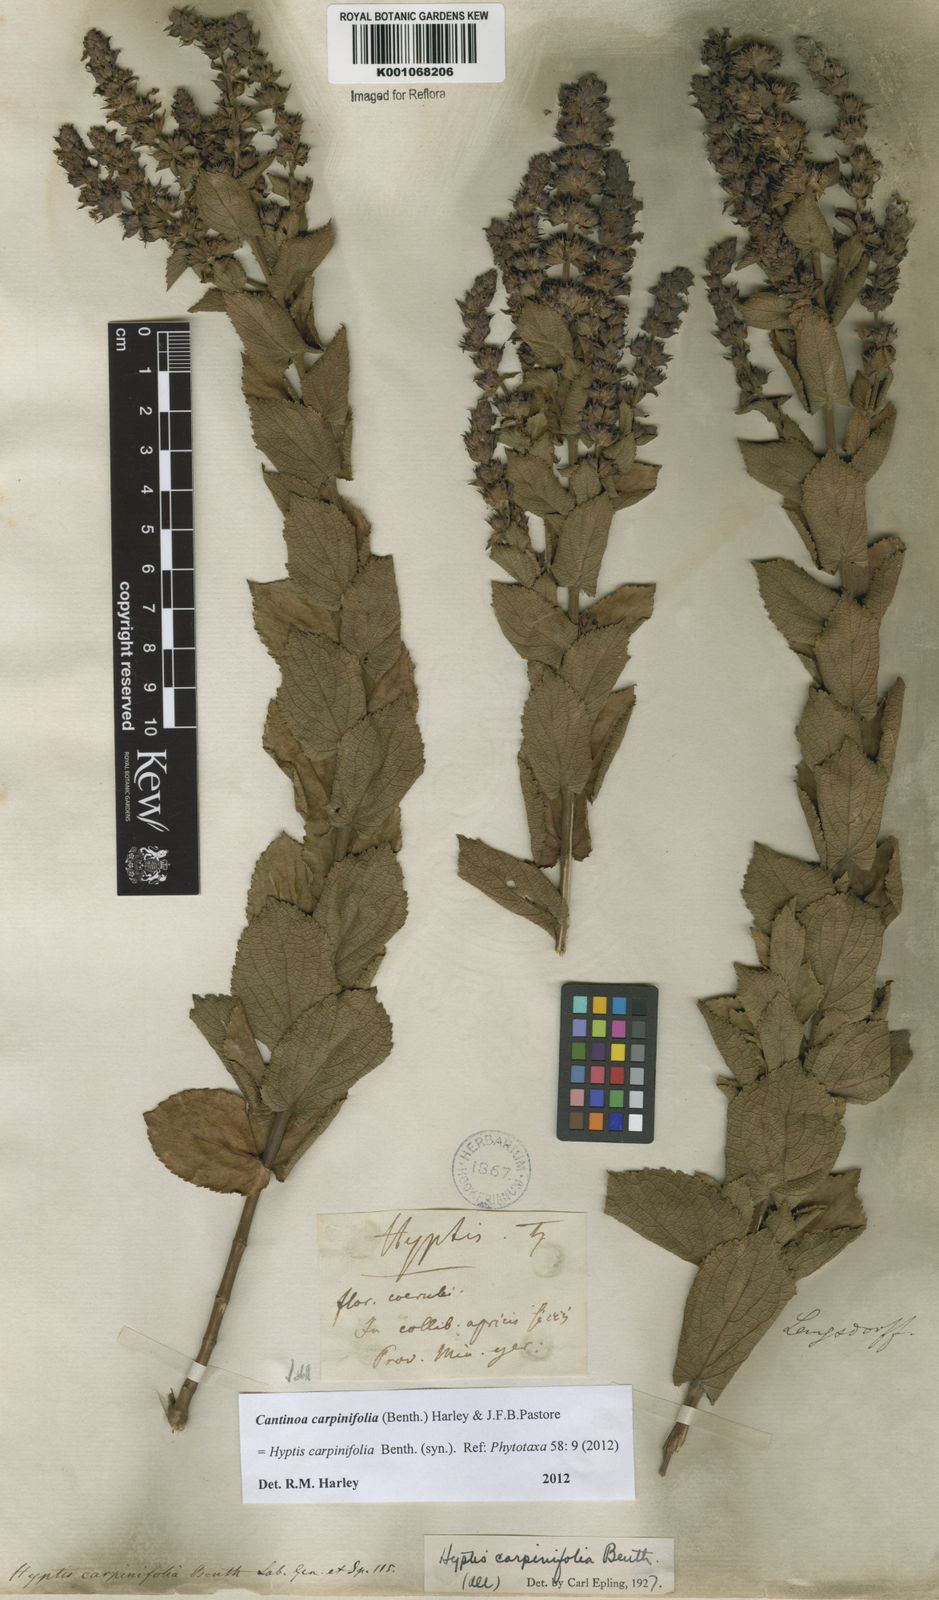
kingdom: Plantae
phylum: Tracheophyta
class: Magnoliopsida
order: Lamiales
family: Lamiaceae
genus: Cantinoa
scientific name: Cantinoa carpinifolia
